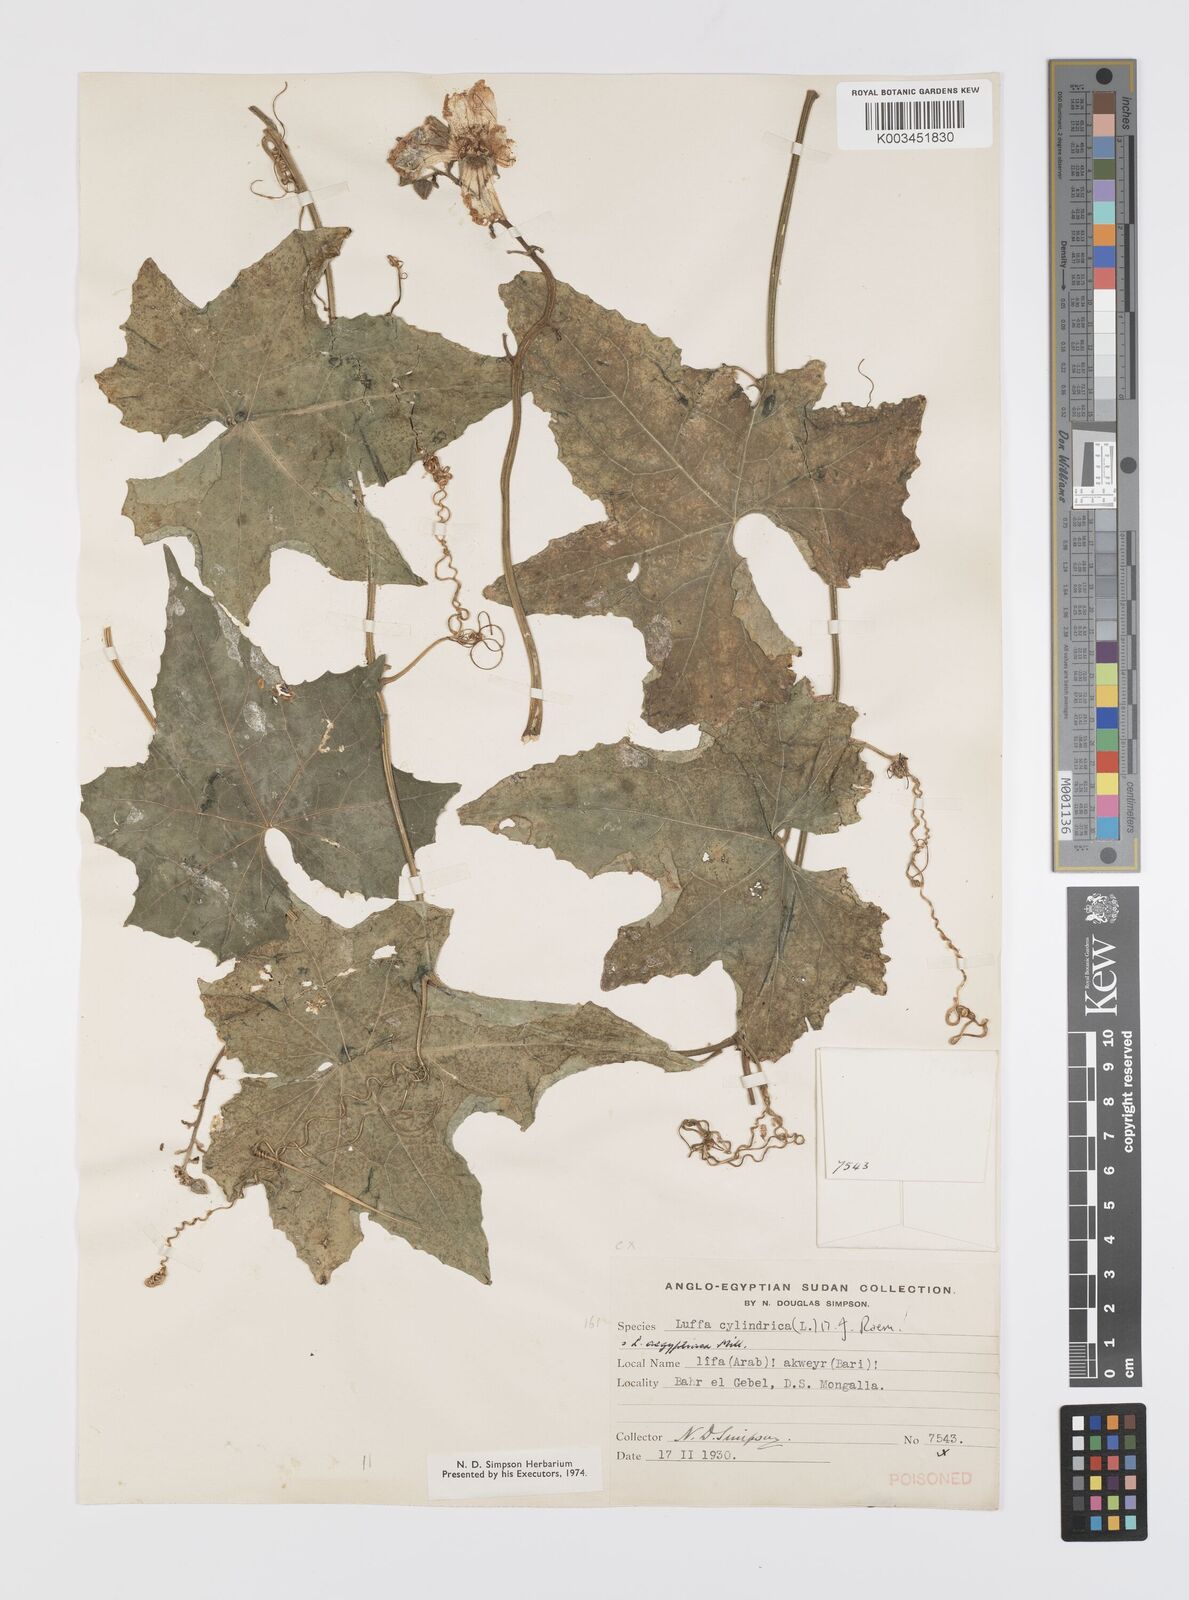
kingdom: Plantae
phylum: Tracheophyta
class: Magnoliopsida
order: Cucurbitales
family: Cucurbitaceae
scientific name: Cucurbitaceae
